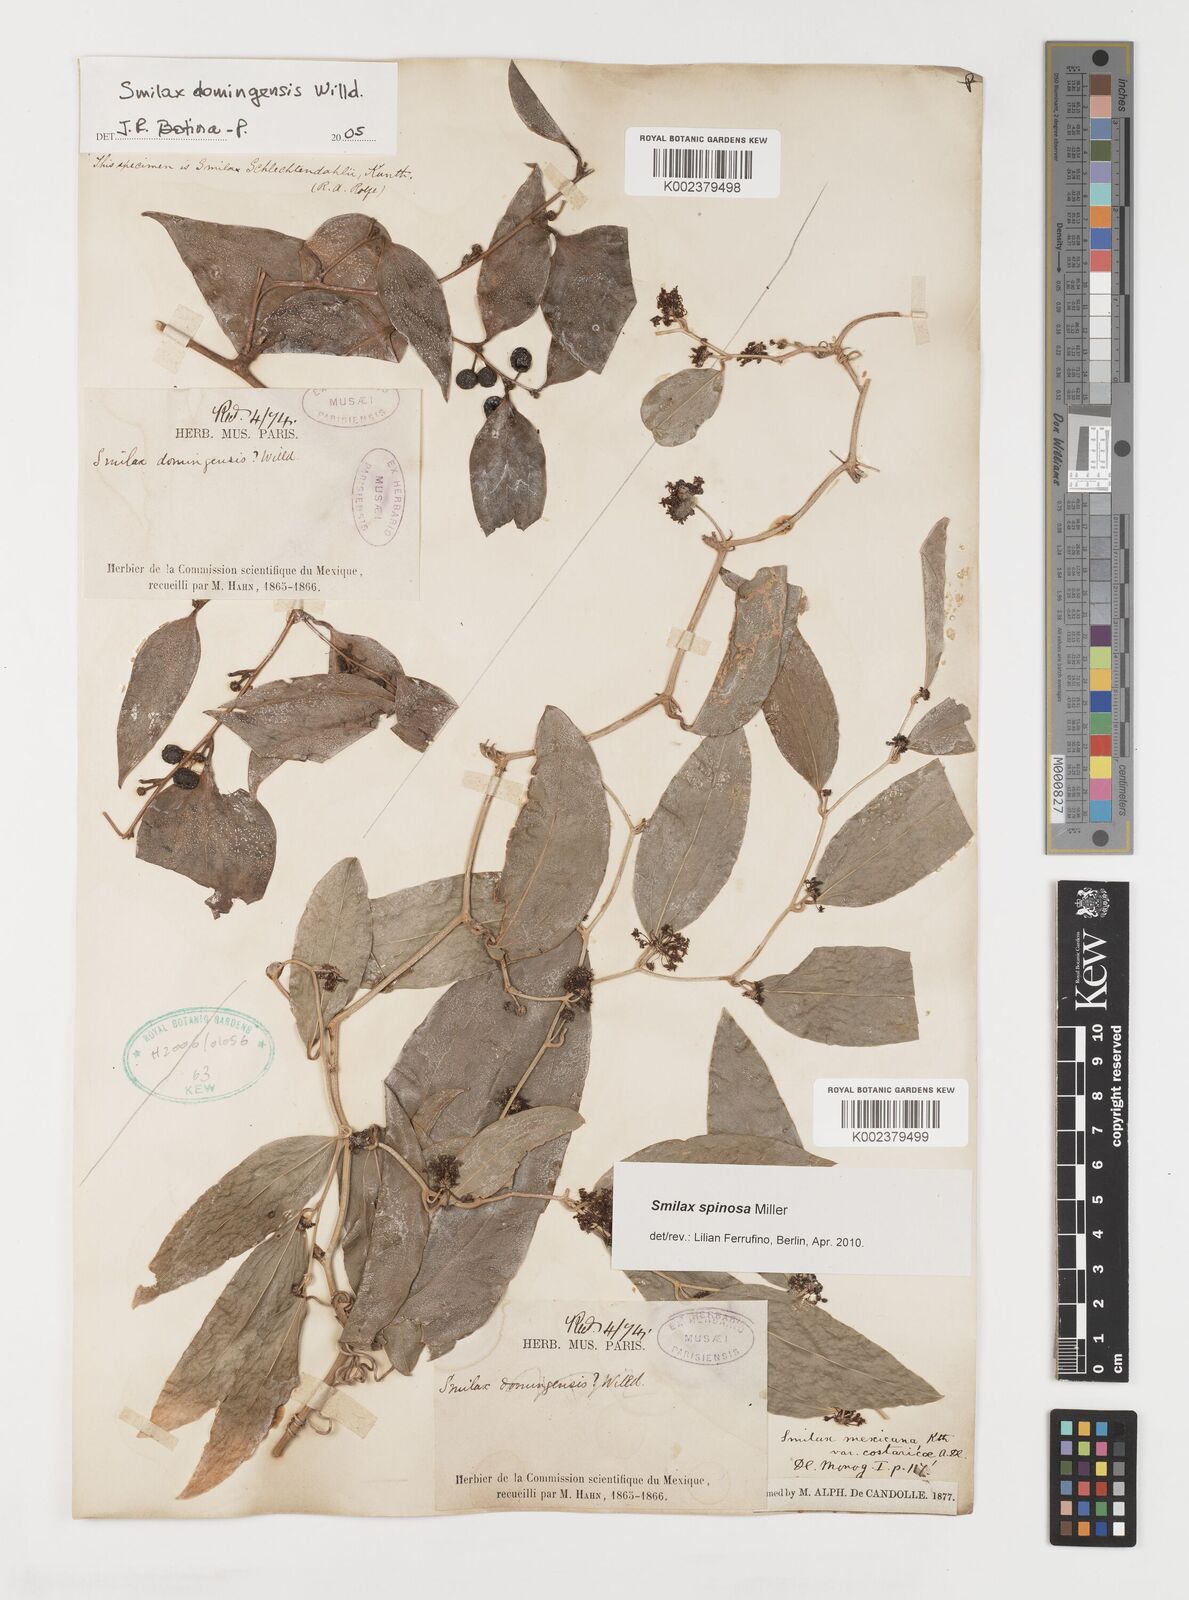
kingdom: Plantae
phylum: Tracheophyta
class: Liliopsida
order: Liliales
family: Smilacaceae
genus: Smilax
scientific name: Smilax spinosa
